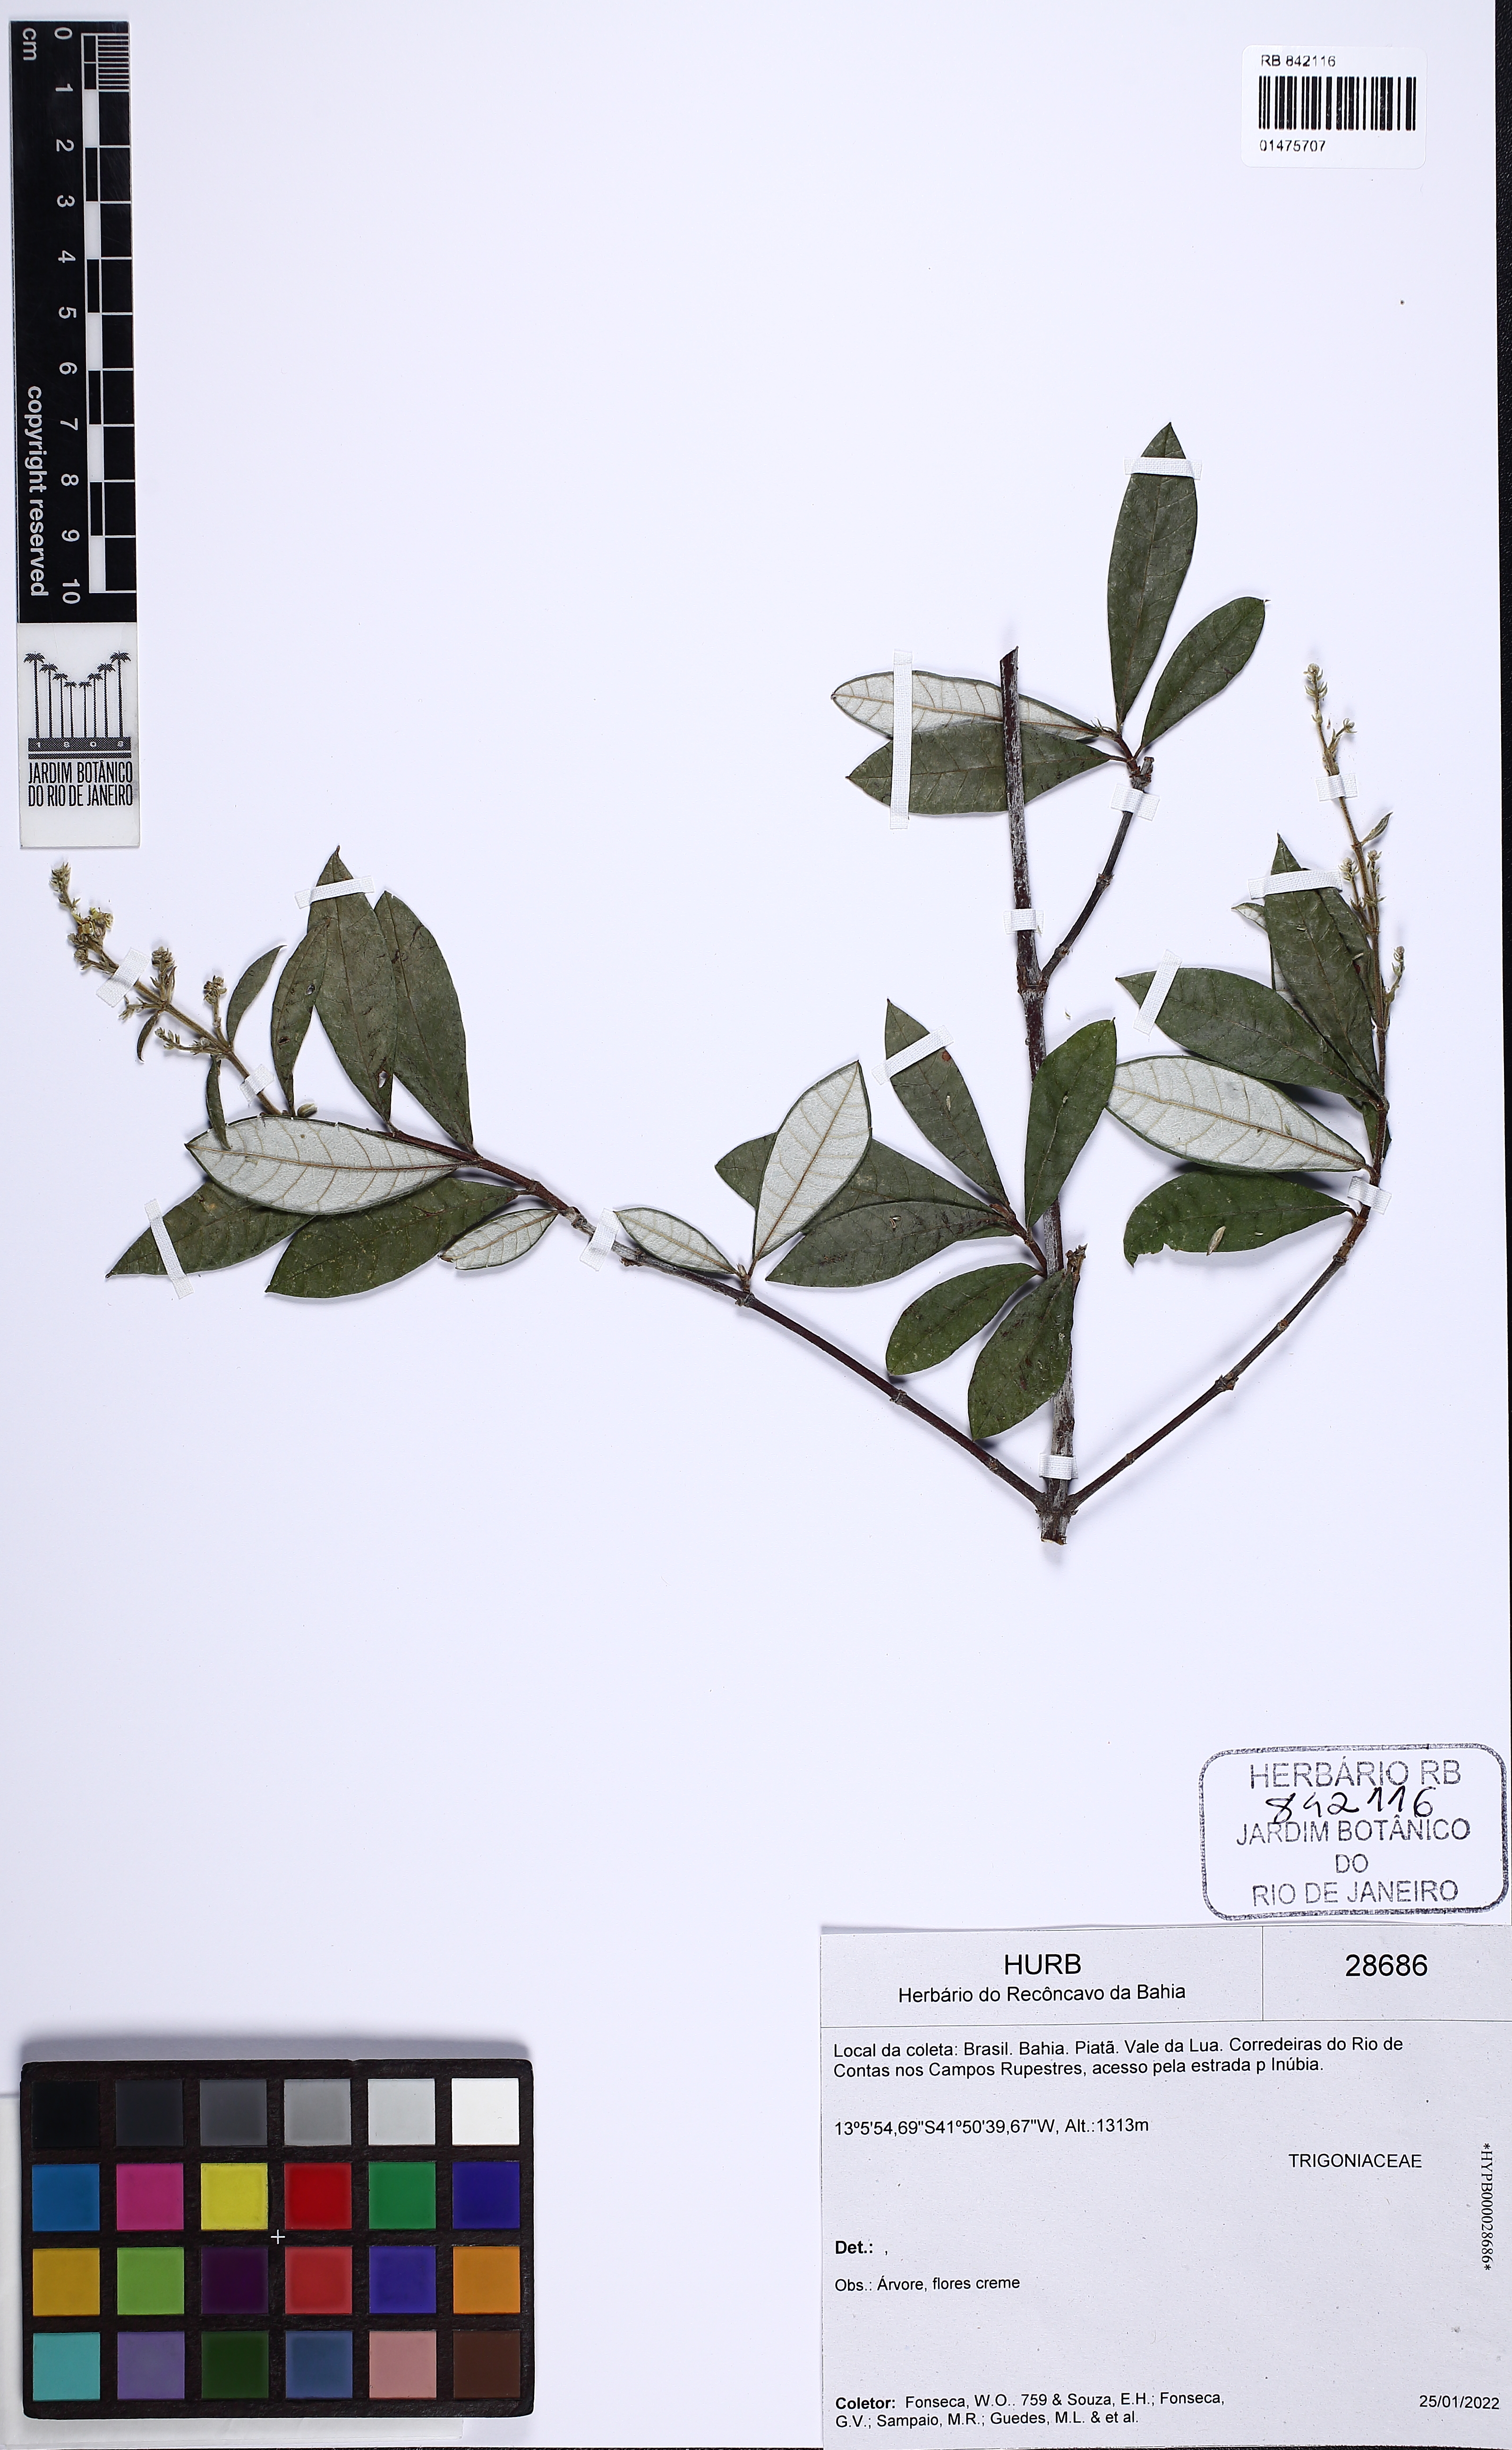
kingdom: Plantae
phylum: Tracheophyta
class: Magnoliopsida
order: Malpighiales
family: Trigoniaceae
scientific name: Trigoniaceae
